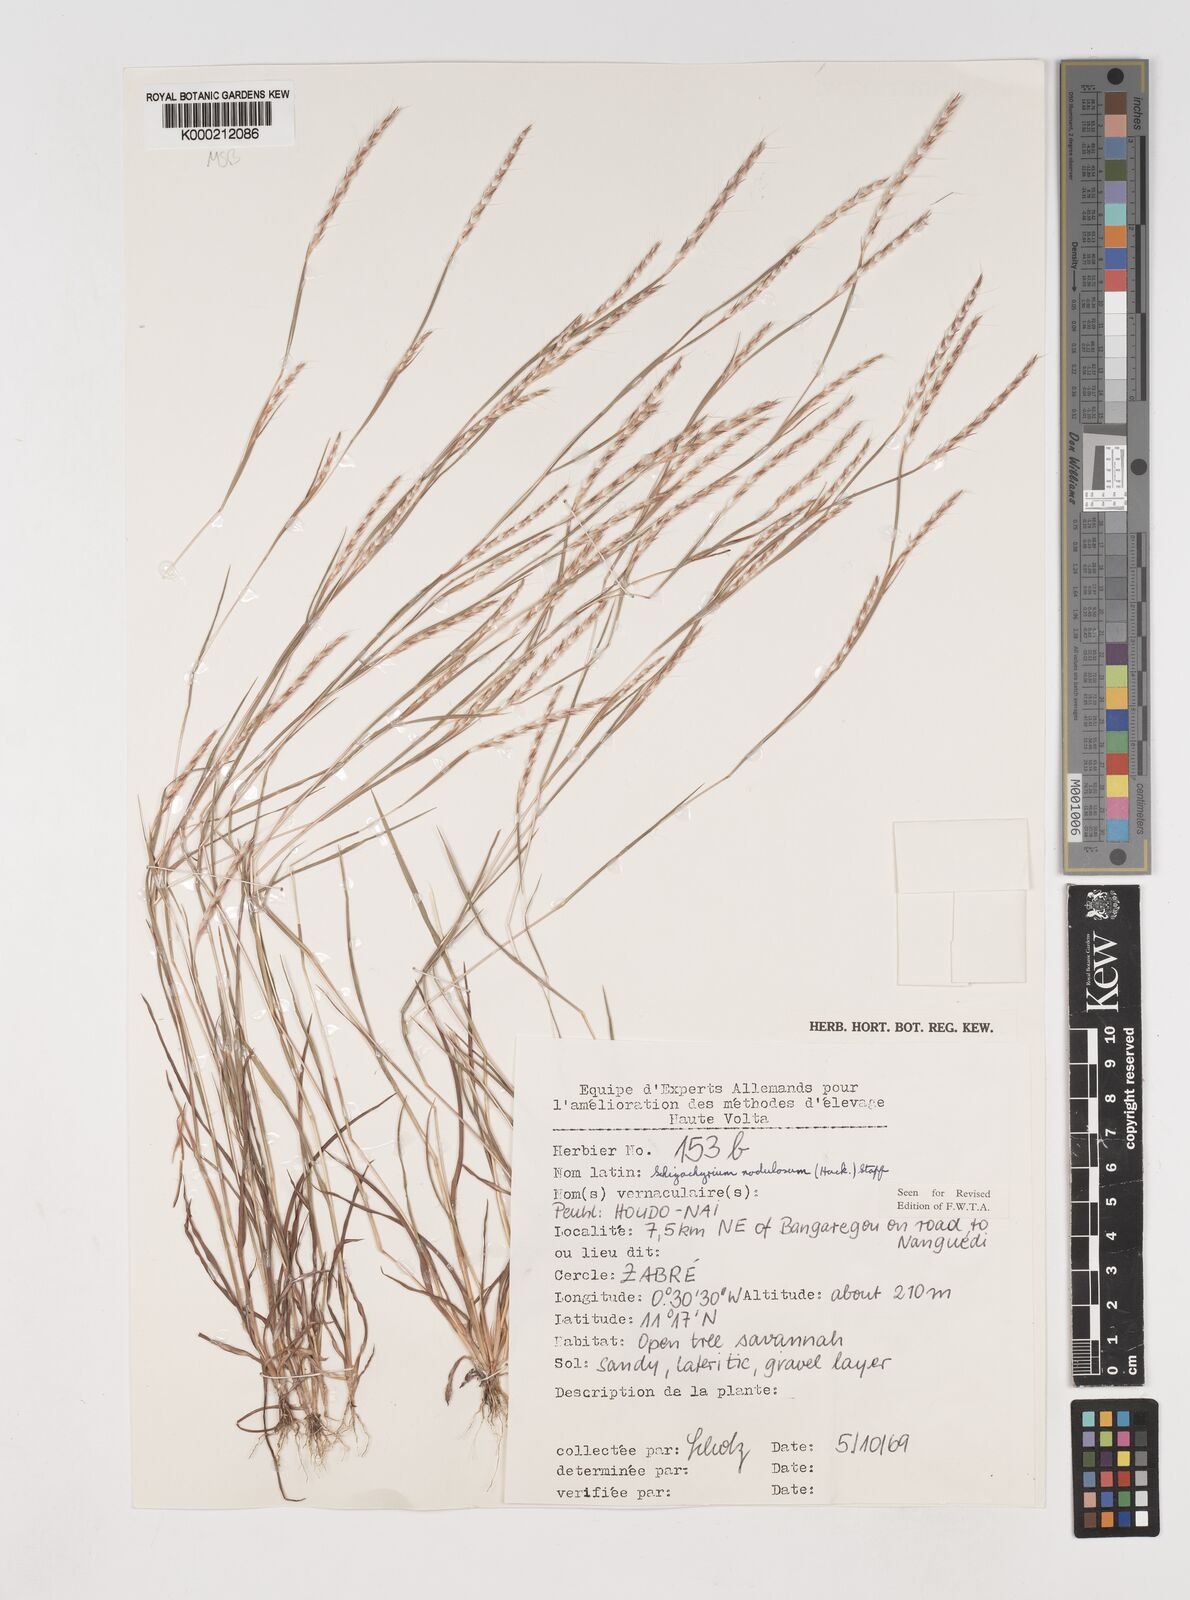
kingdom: Plantae
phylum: Tracheophyta
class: Liliopsida
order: Poales
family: Poaceae
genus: Schizachyrium
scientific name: Schizachyrium nodulosum
